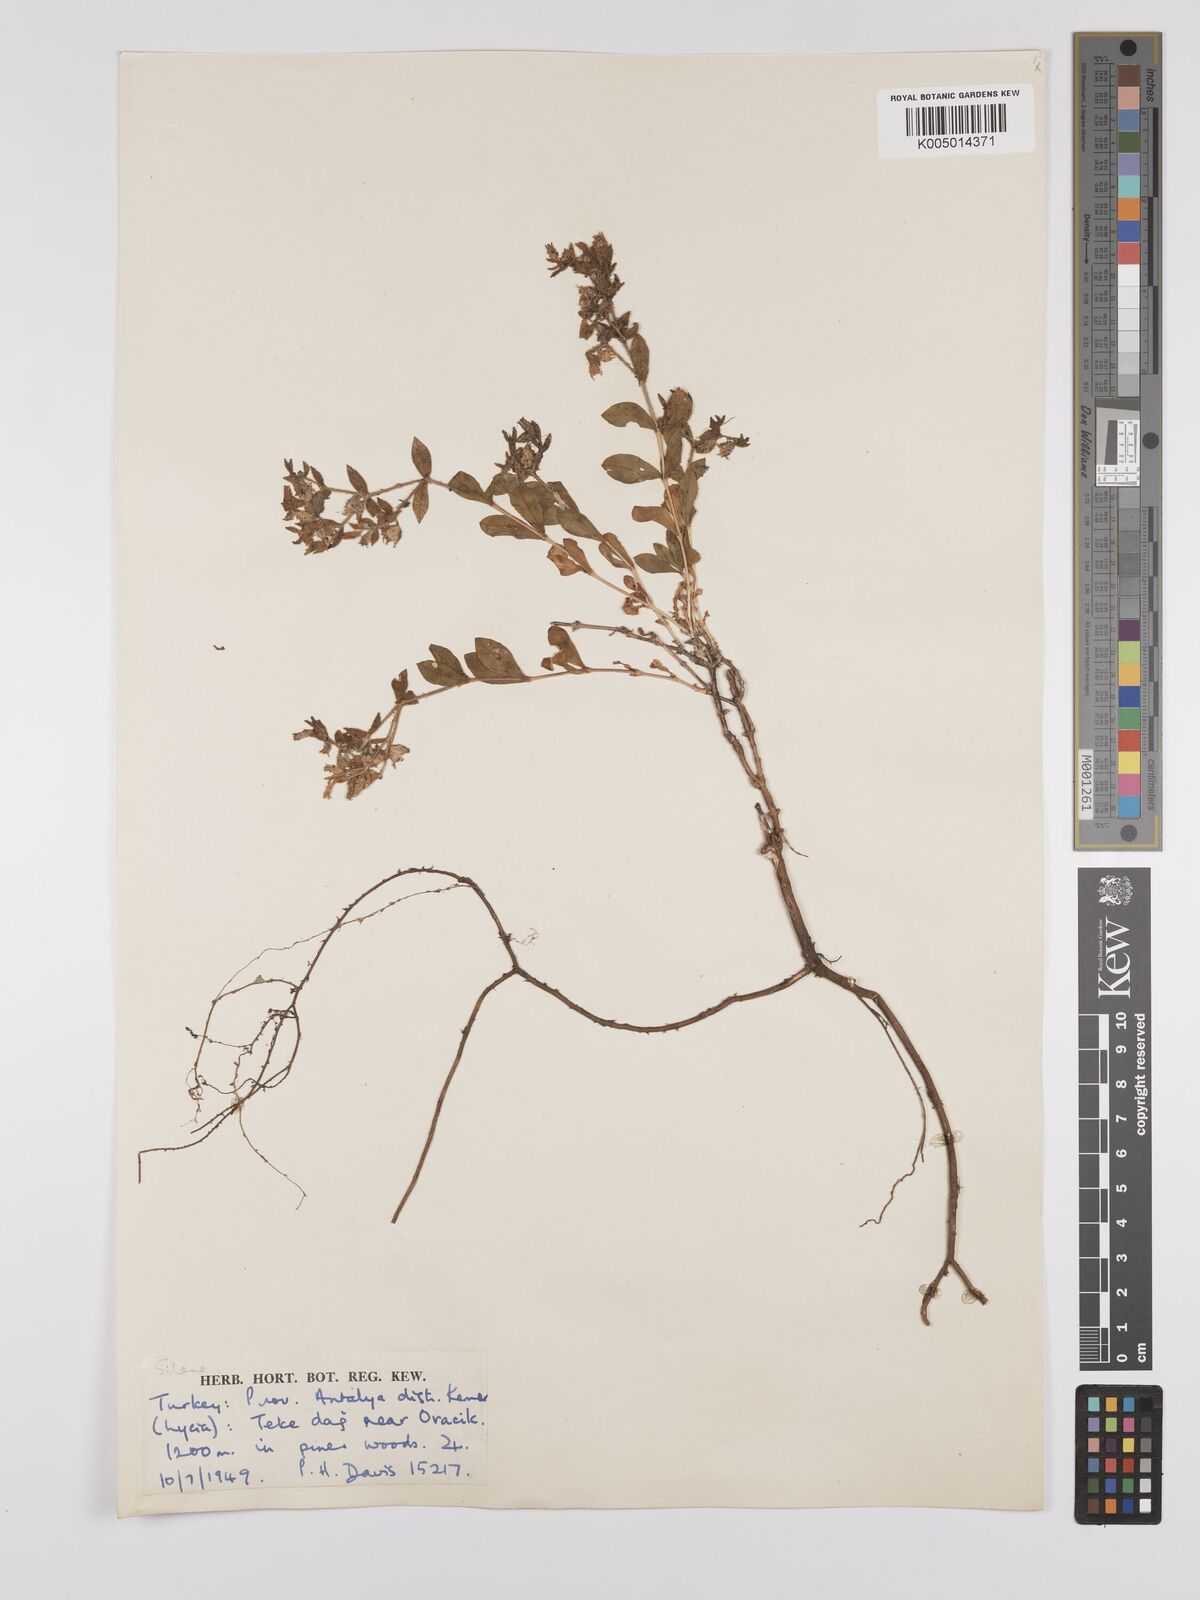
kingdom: Plantae
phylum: Tracheophyta
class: Magnoliopsida
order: Caryophyllales
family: Caryophyllaceae
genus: Silene
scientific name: Silene
